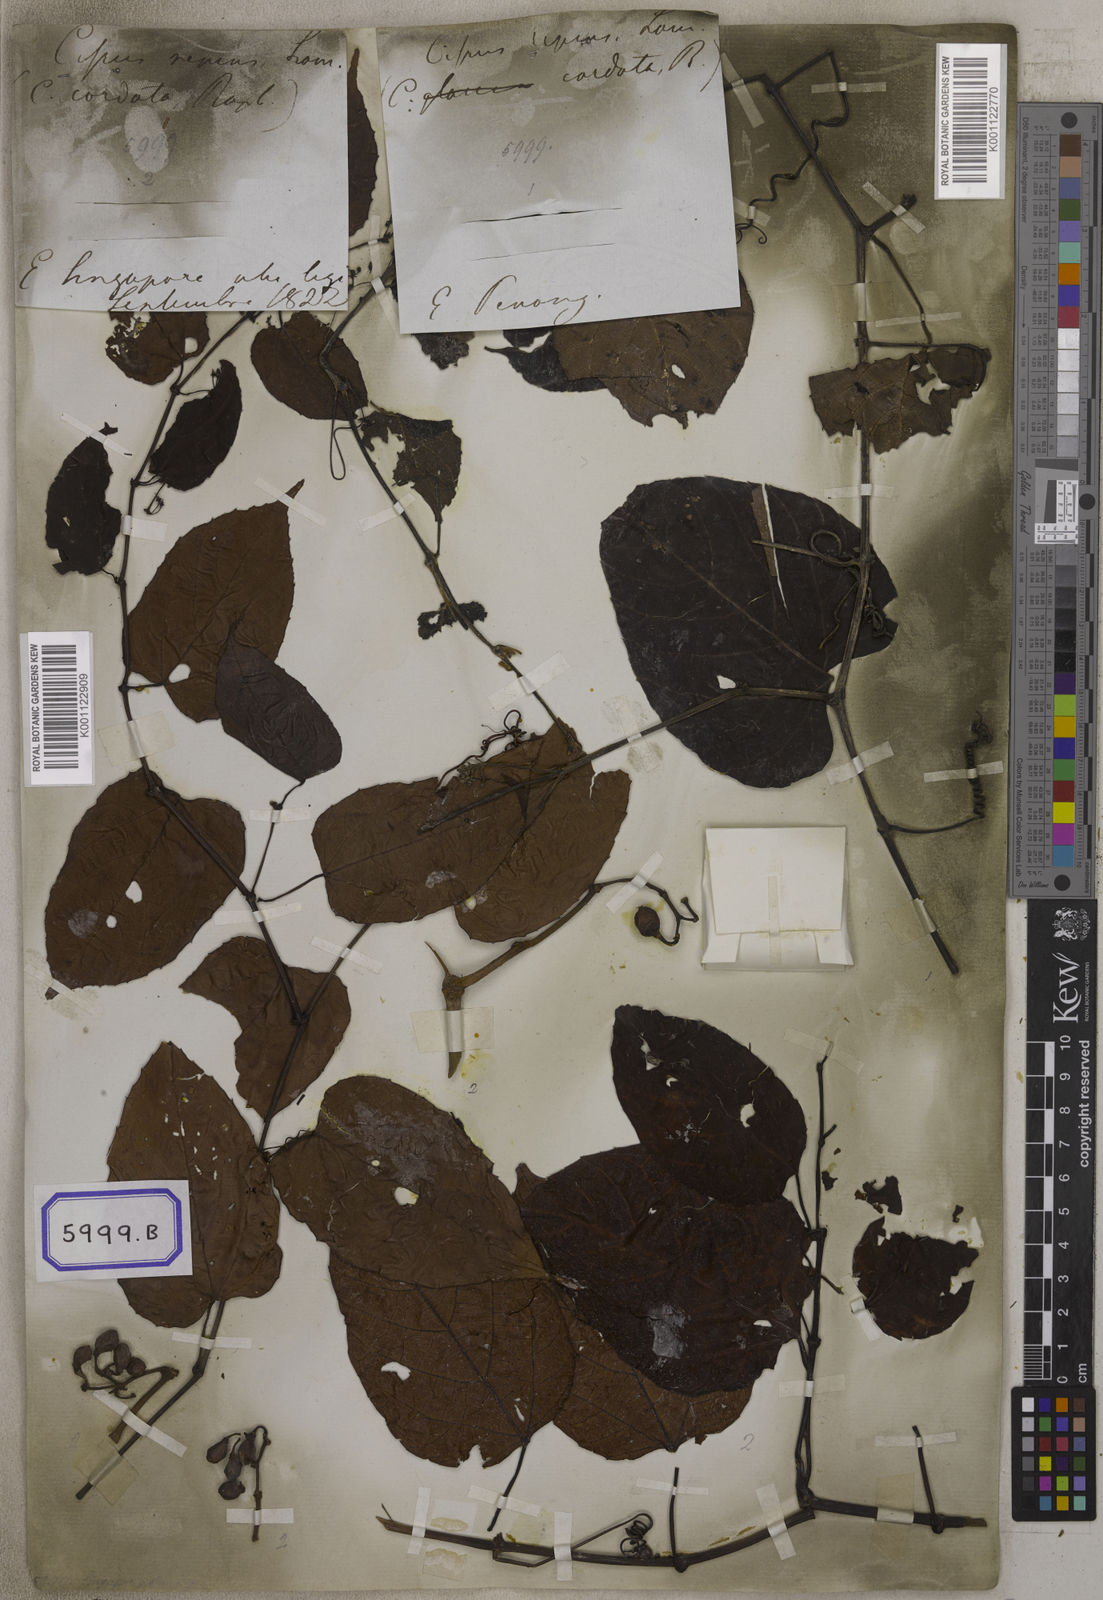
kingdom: Plantae
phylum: Tracheophyta
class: Magnoliopsida
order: Vitales
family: Vitaceae
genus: Cissus
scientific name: Cissus adnata
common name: Heart-leaf-grape
